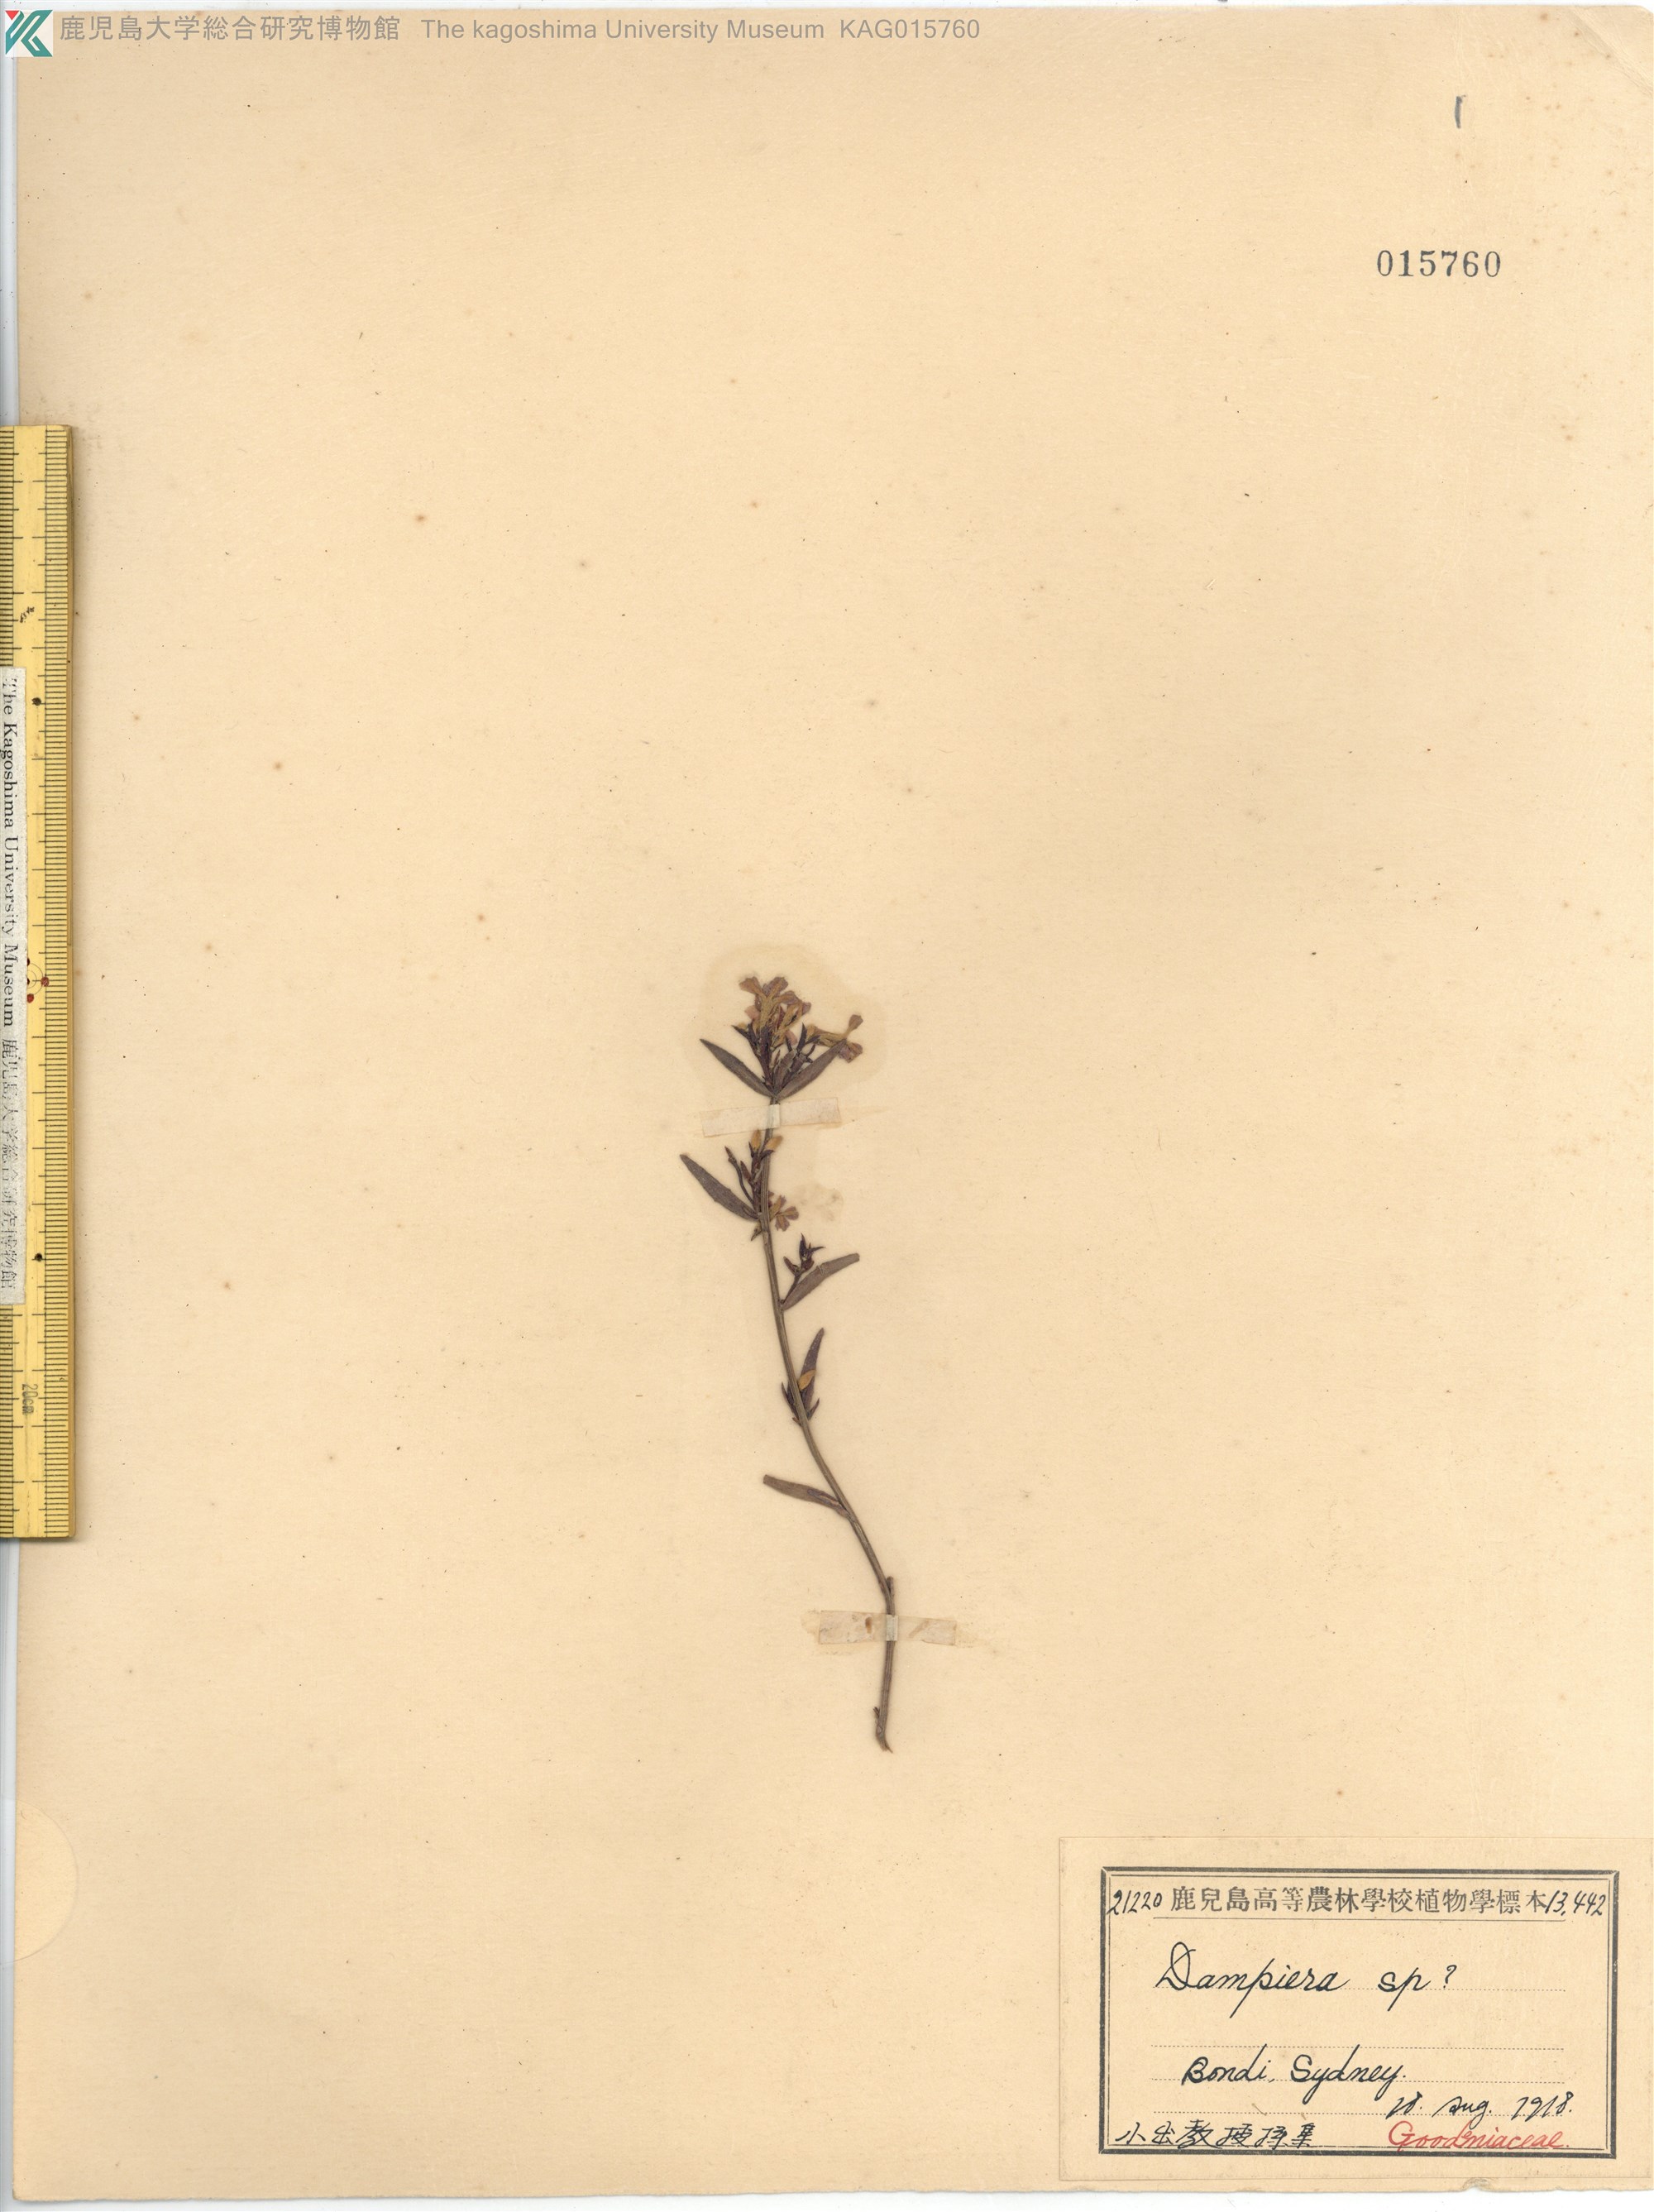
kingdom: Plantae
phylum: Tracheophyta
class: Magnoliopsida
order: Asterales
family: Goodeniaceae
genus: Dampiera
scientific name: Dampiera
